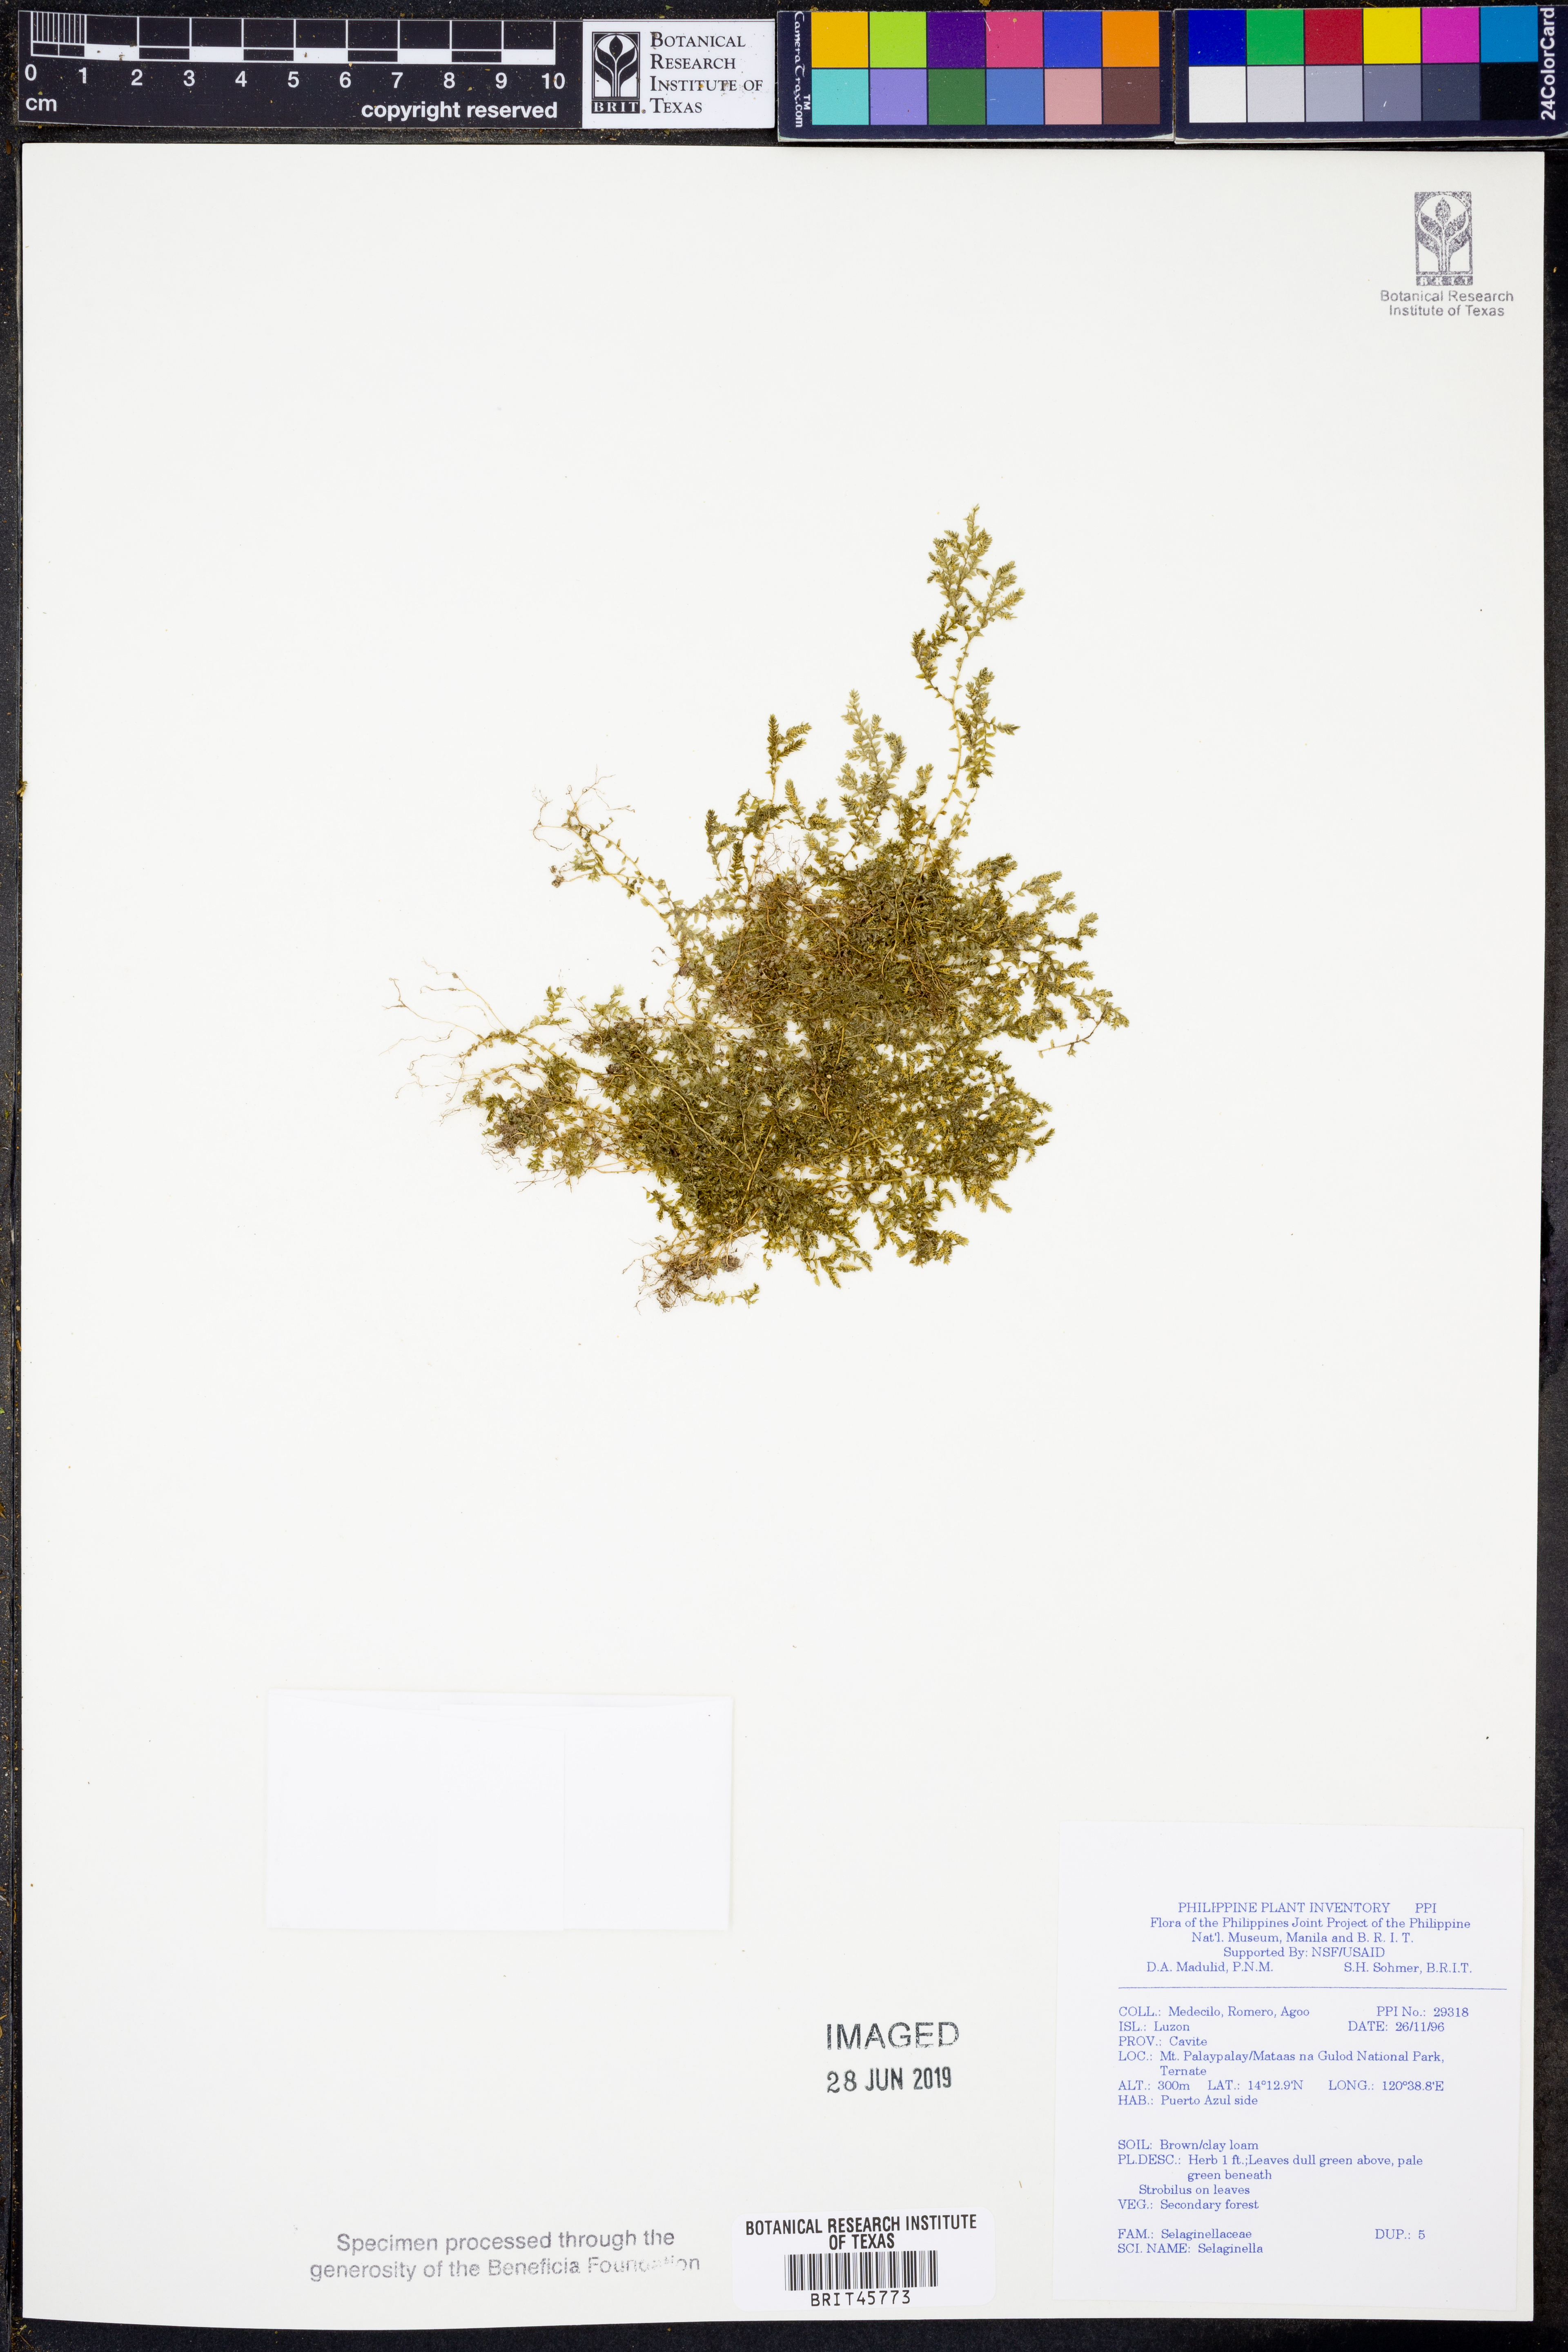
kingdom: Plantae
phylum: Tracheophyta
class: Lycopodiopsida
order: Selaginellales
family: Selaginellaceae
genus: Selaginella
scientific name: Selaginella
